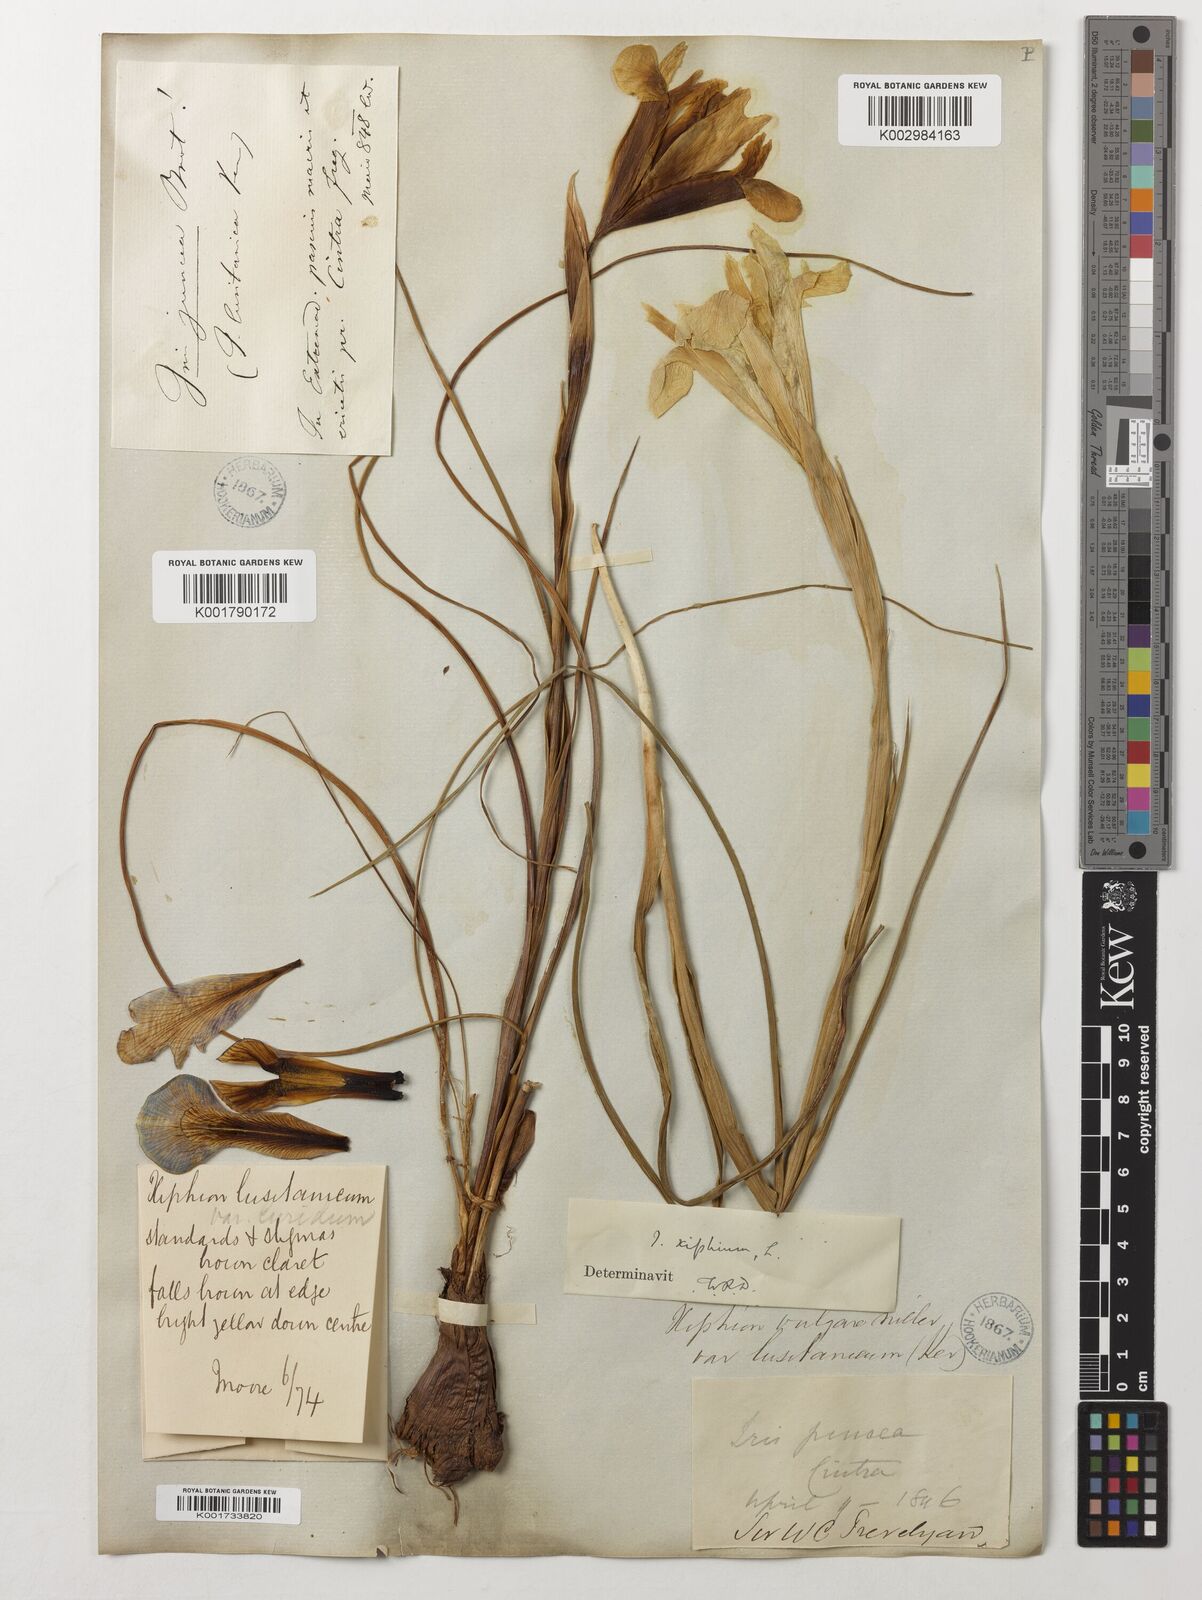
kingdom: Plantae
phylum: Tracheophyta
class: Liliopsida
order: Asparagales
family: Iridaceae
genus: Iris
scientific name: Iris xiphium
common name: Spanish iris
